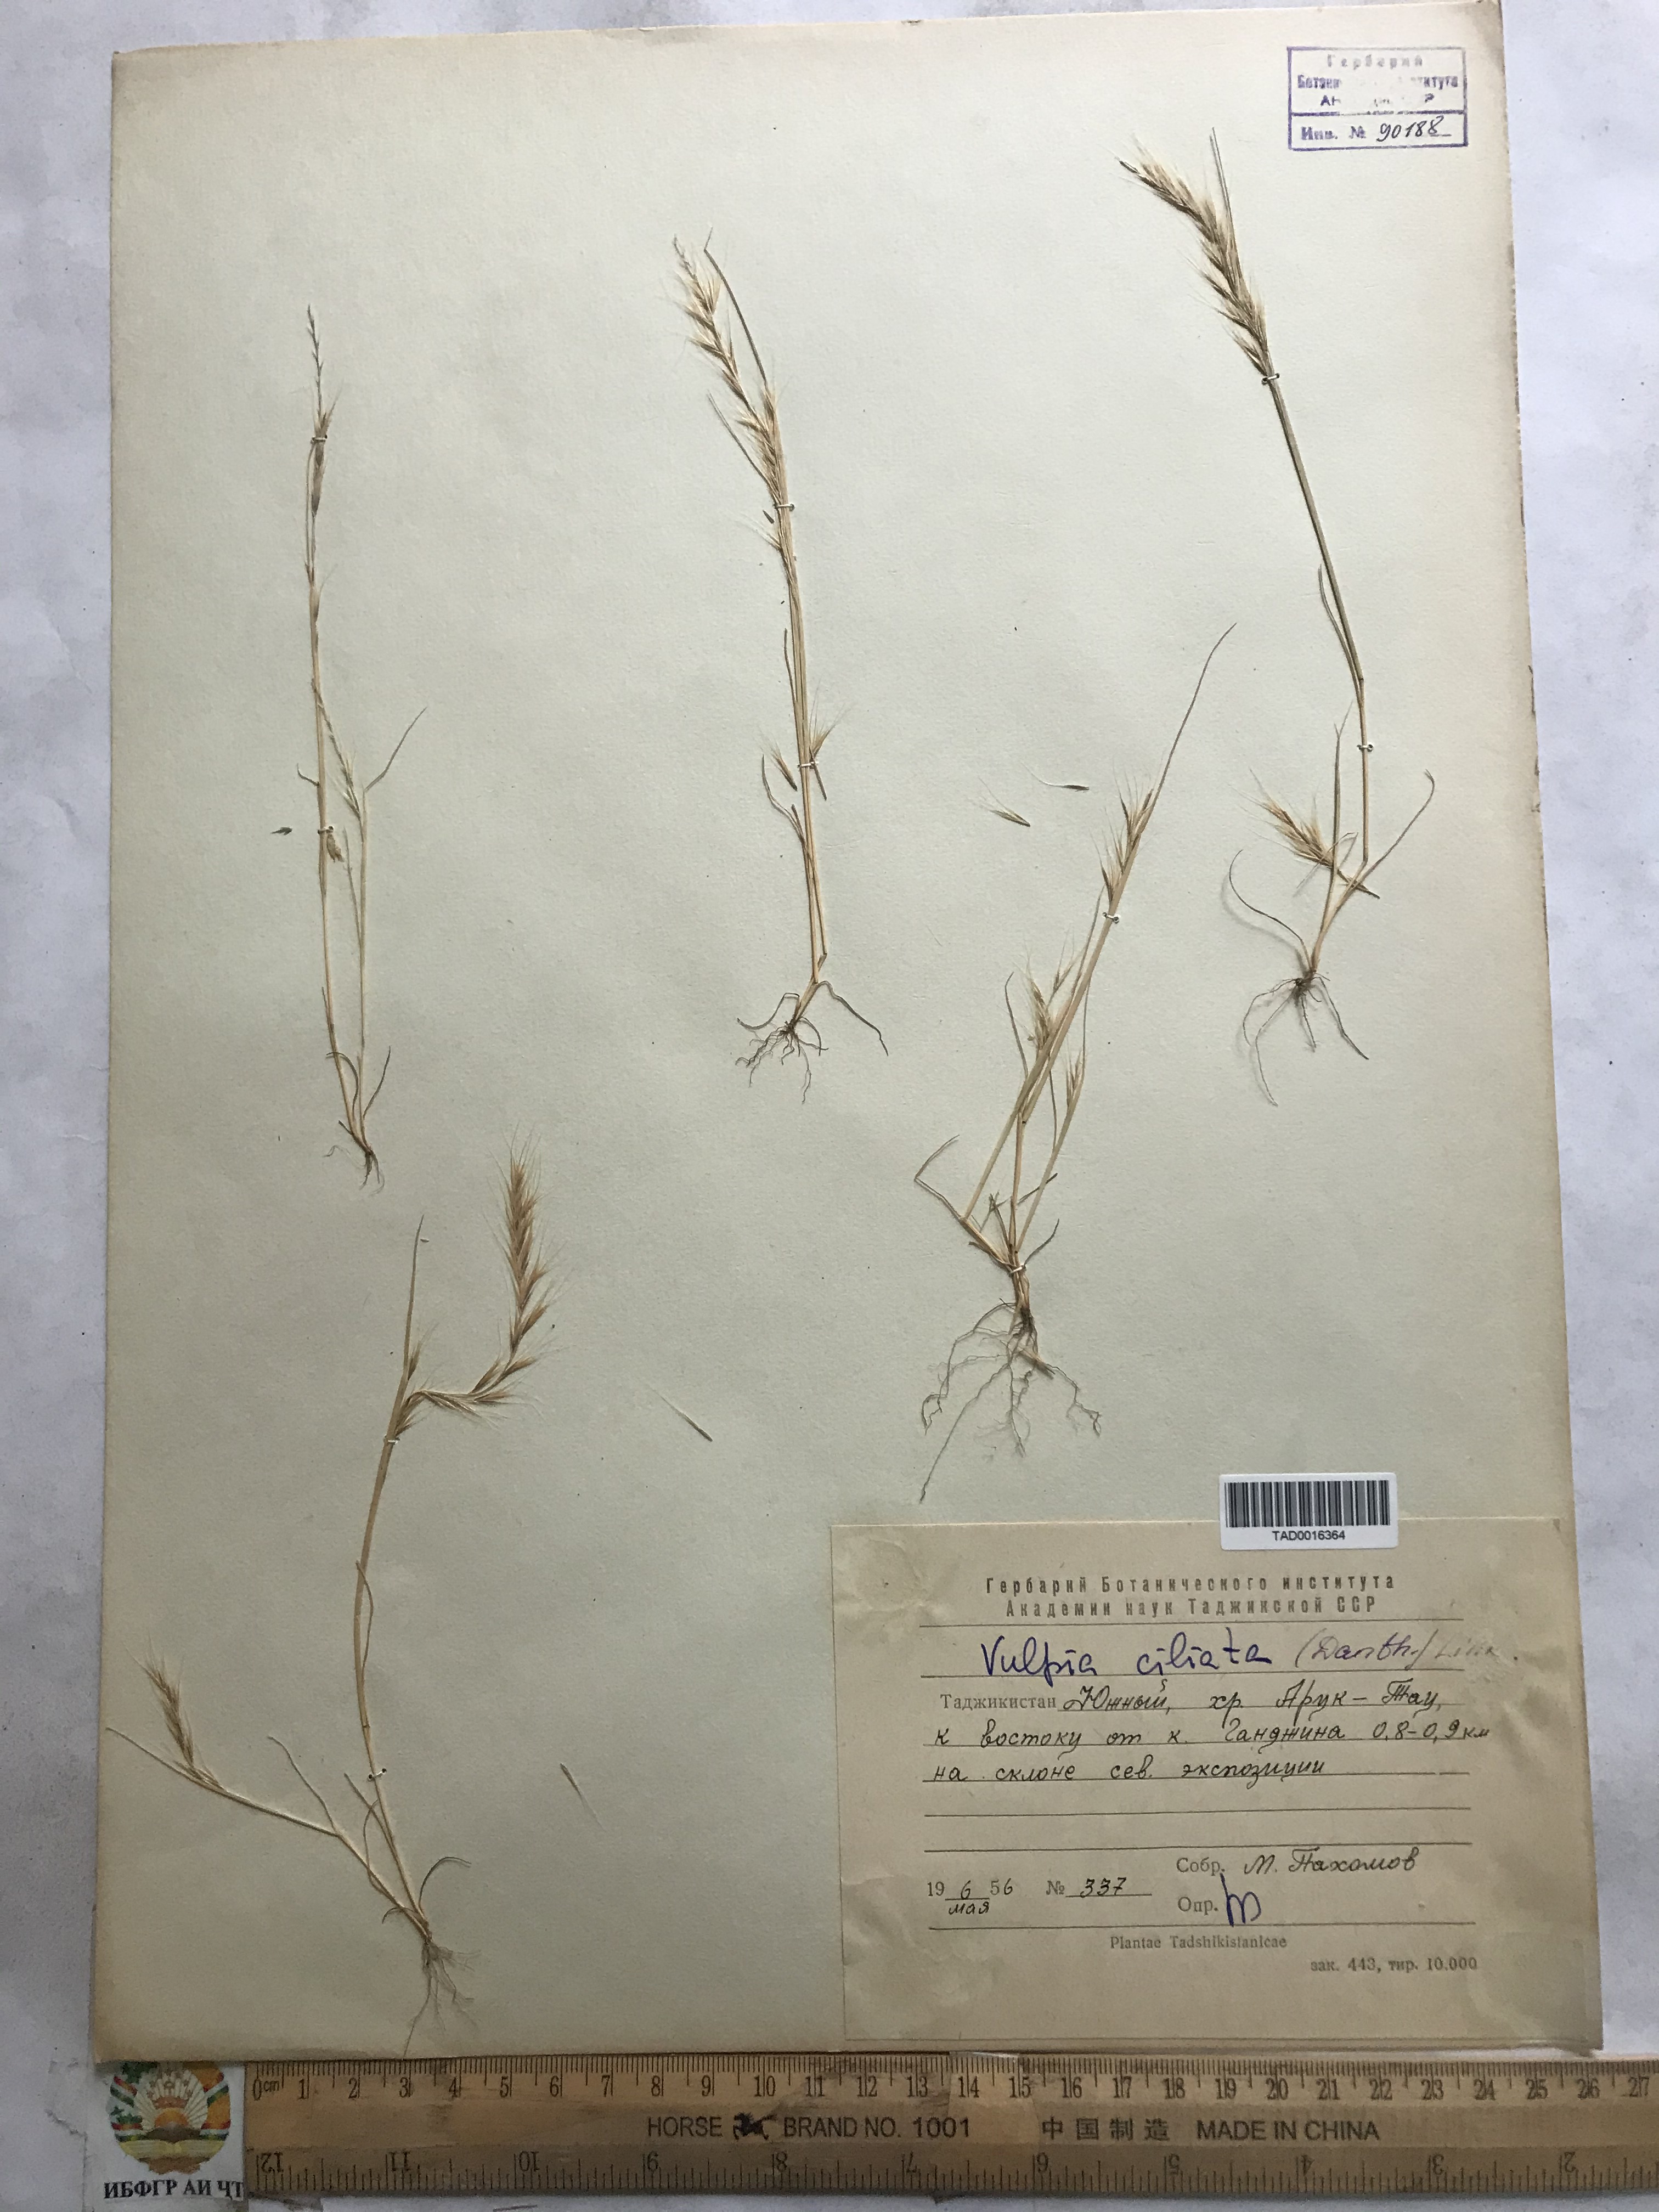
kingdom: Plantae
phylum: Tracheophyta
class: Liliopsida
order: Poales
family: Poaceae
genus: Festuca
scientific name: Festuca ambigua
